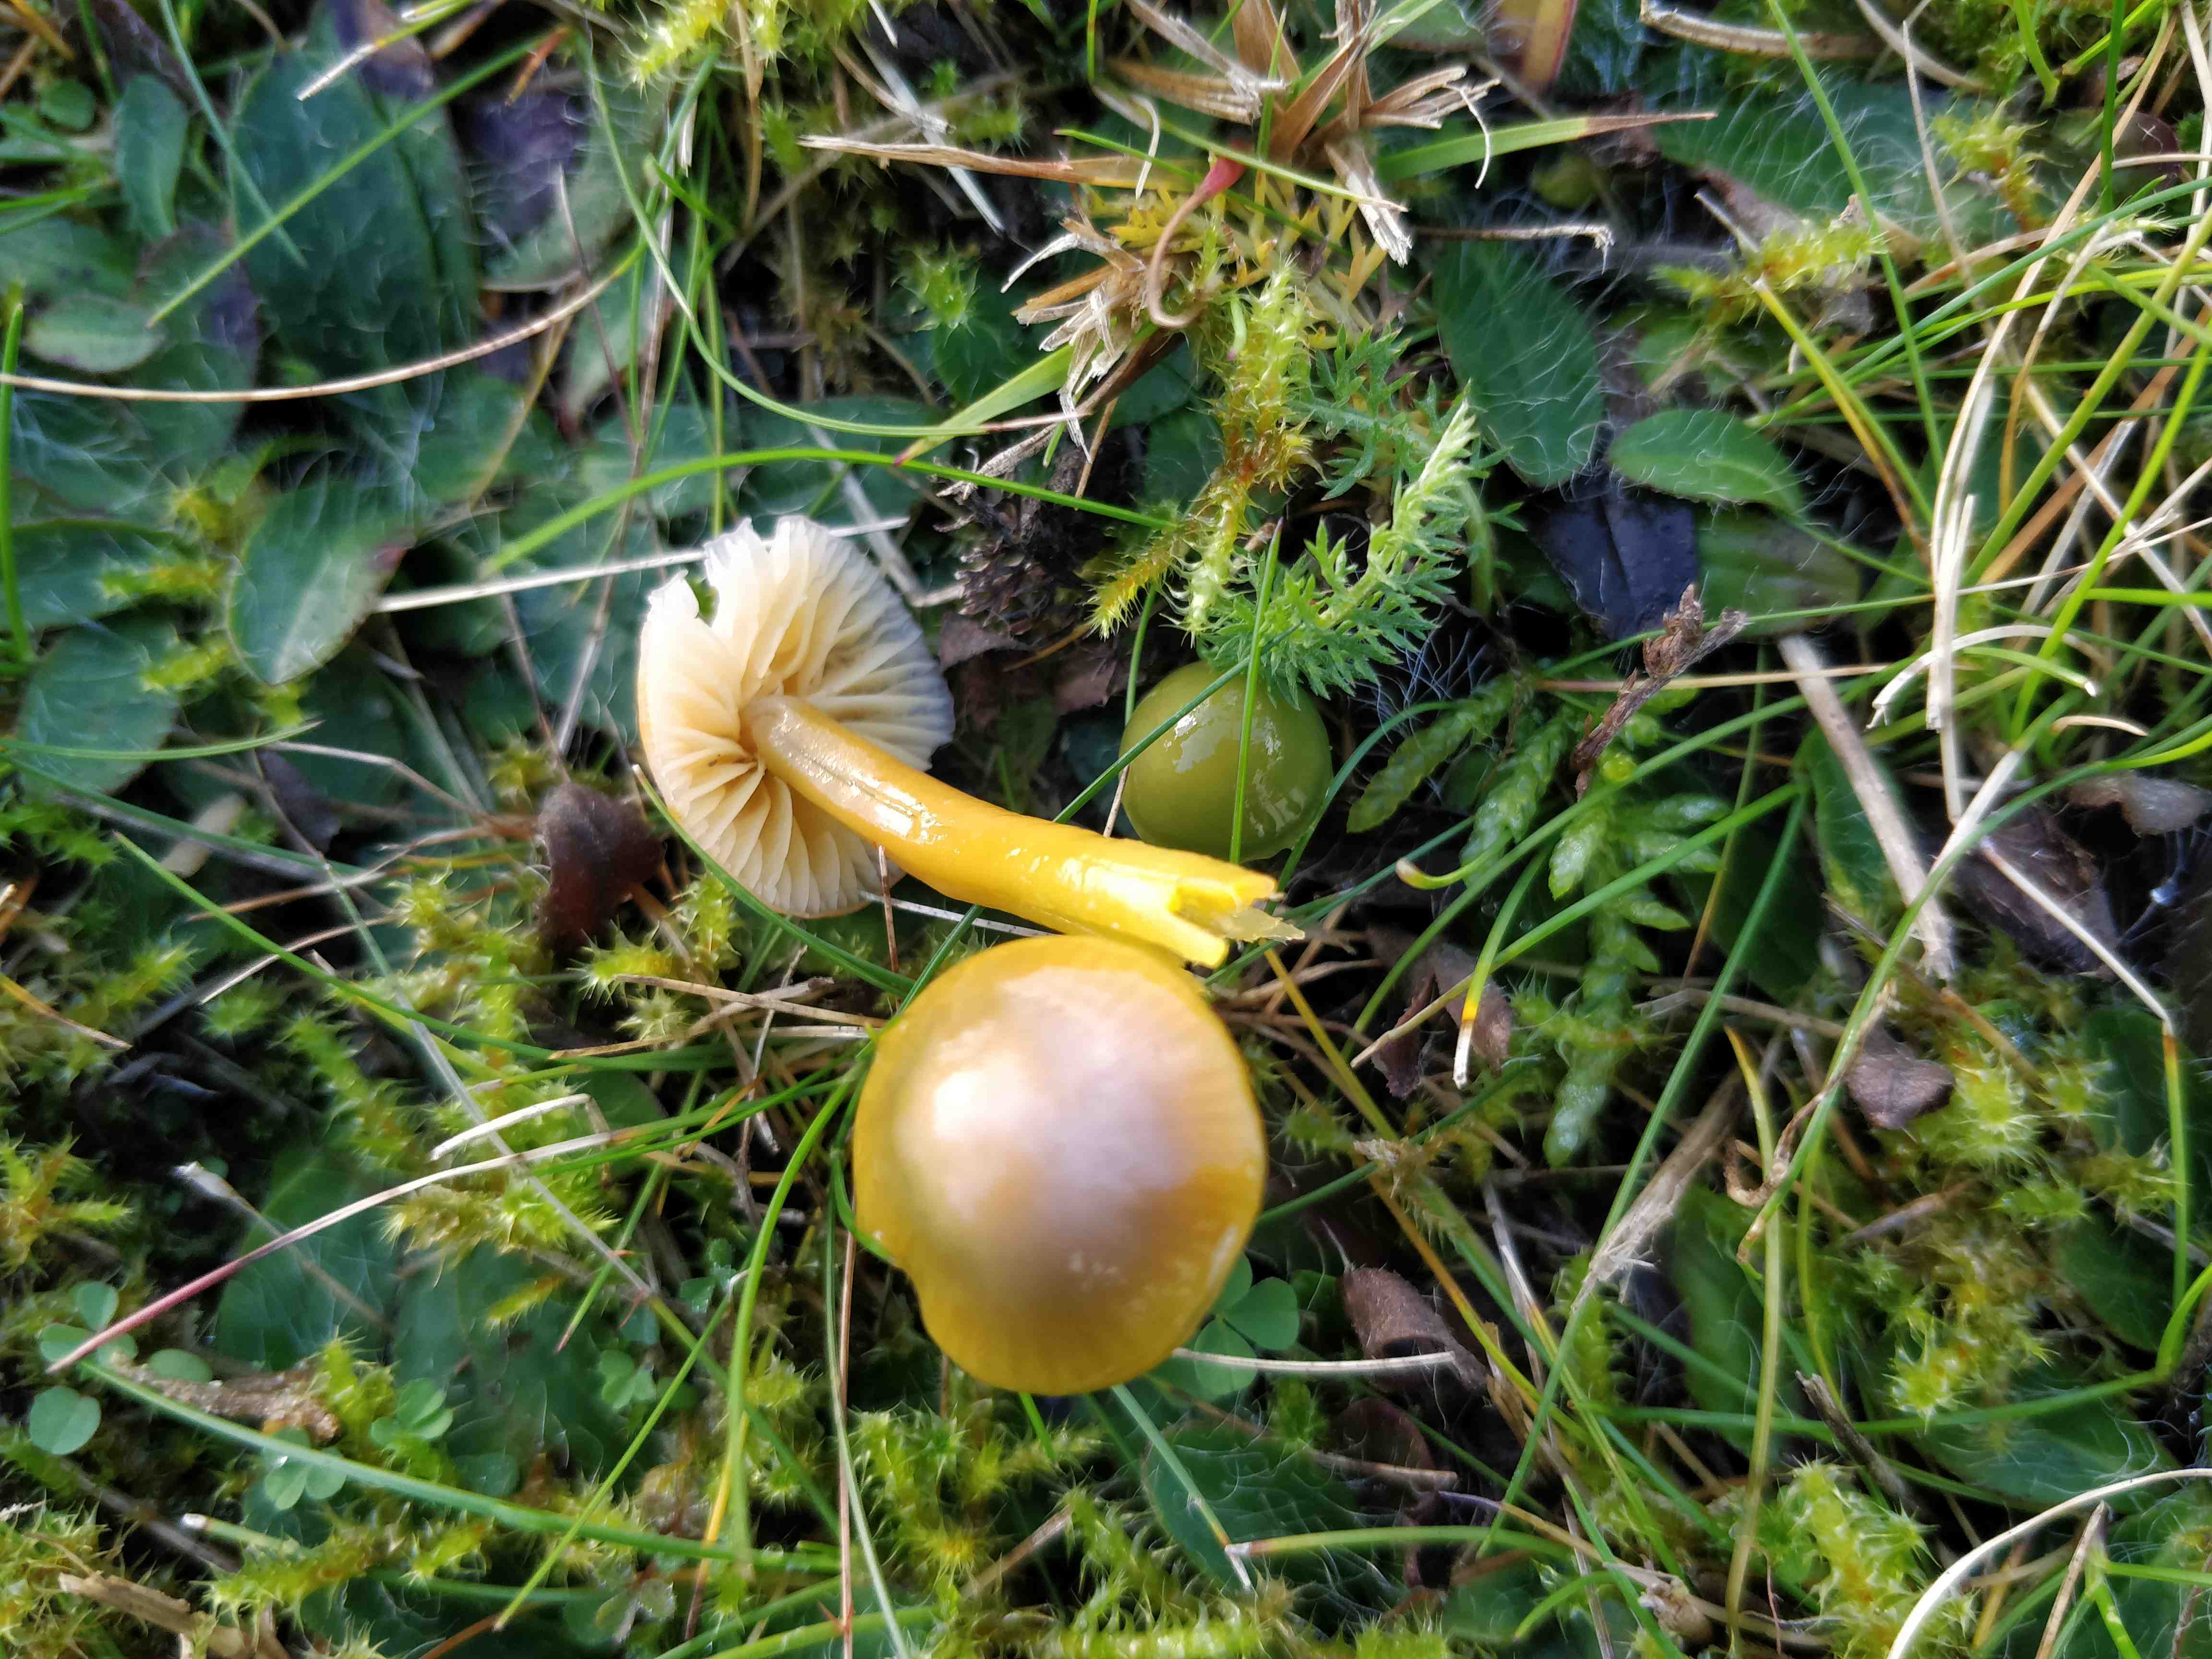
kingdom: Fungi
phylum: Basidiomycota
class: Agaricomycetes
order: Agaricales
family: Hygrophoraceae
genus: Gliophorus
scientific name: Gliophorus psittacinus
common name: papegøje-vokshat
